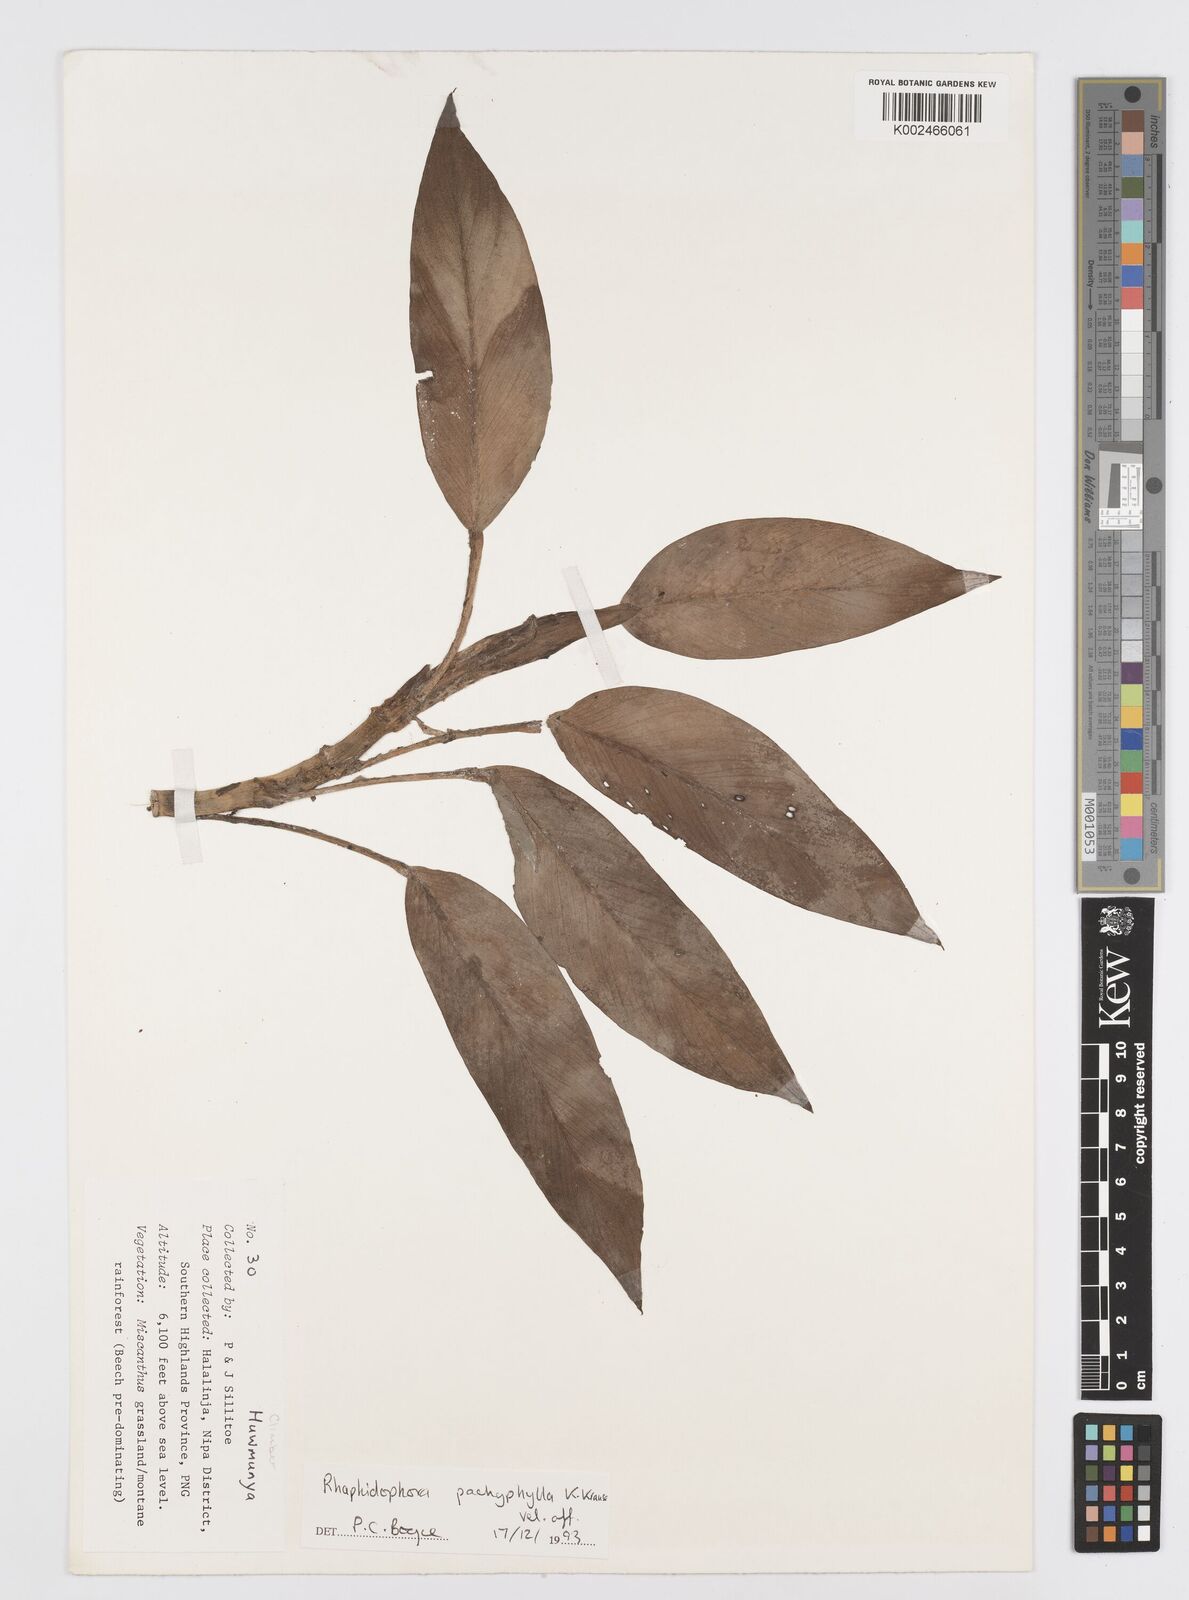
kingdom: Plantae
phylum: Tracheophyta
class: Liliopsida
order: Alismatales
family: Araceae
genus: Rhaphidophora
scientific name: Rhaphidophora nicolsonii
